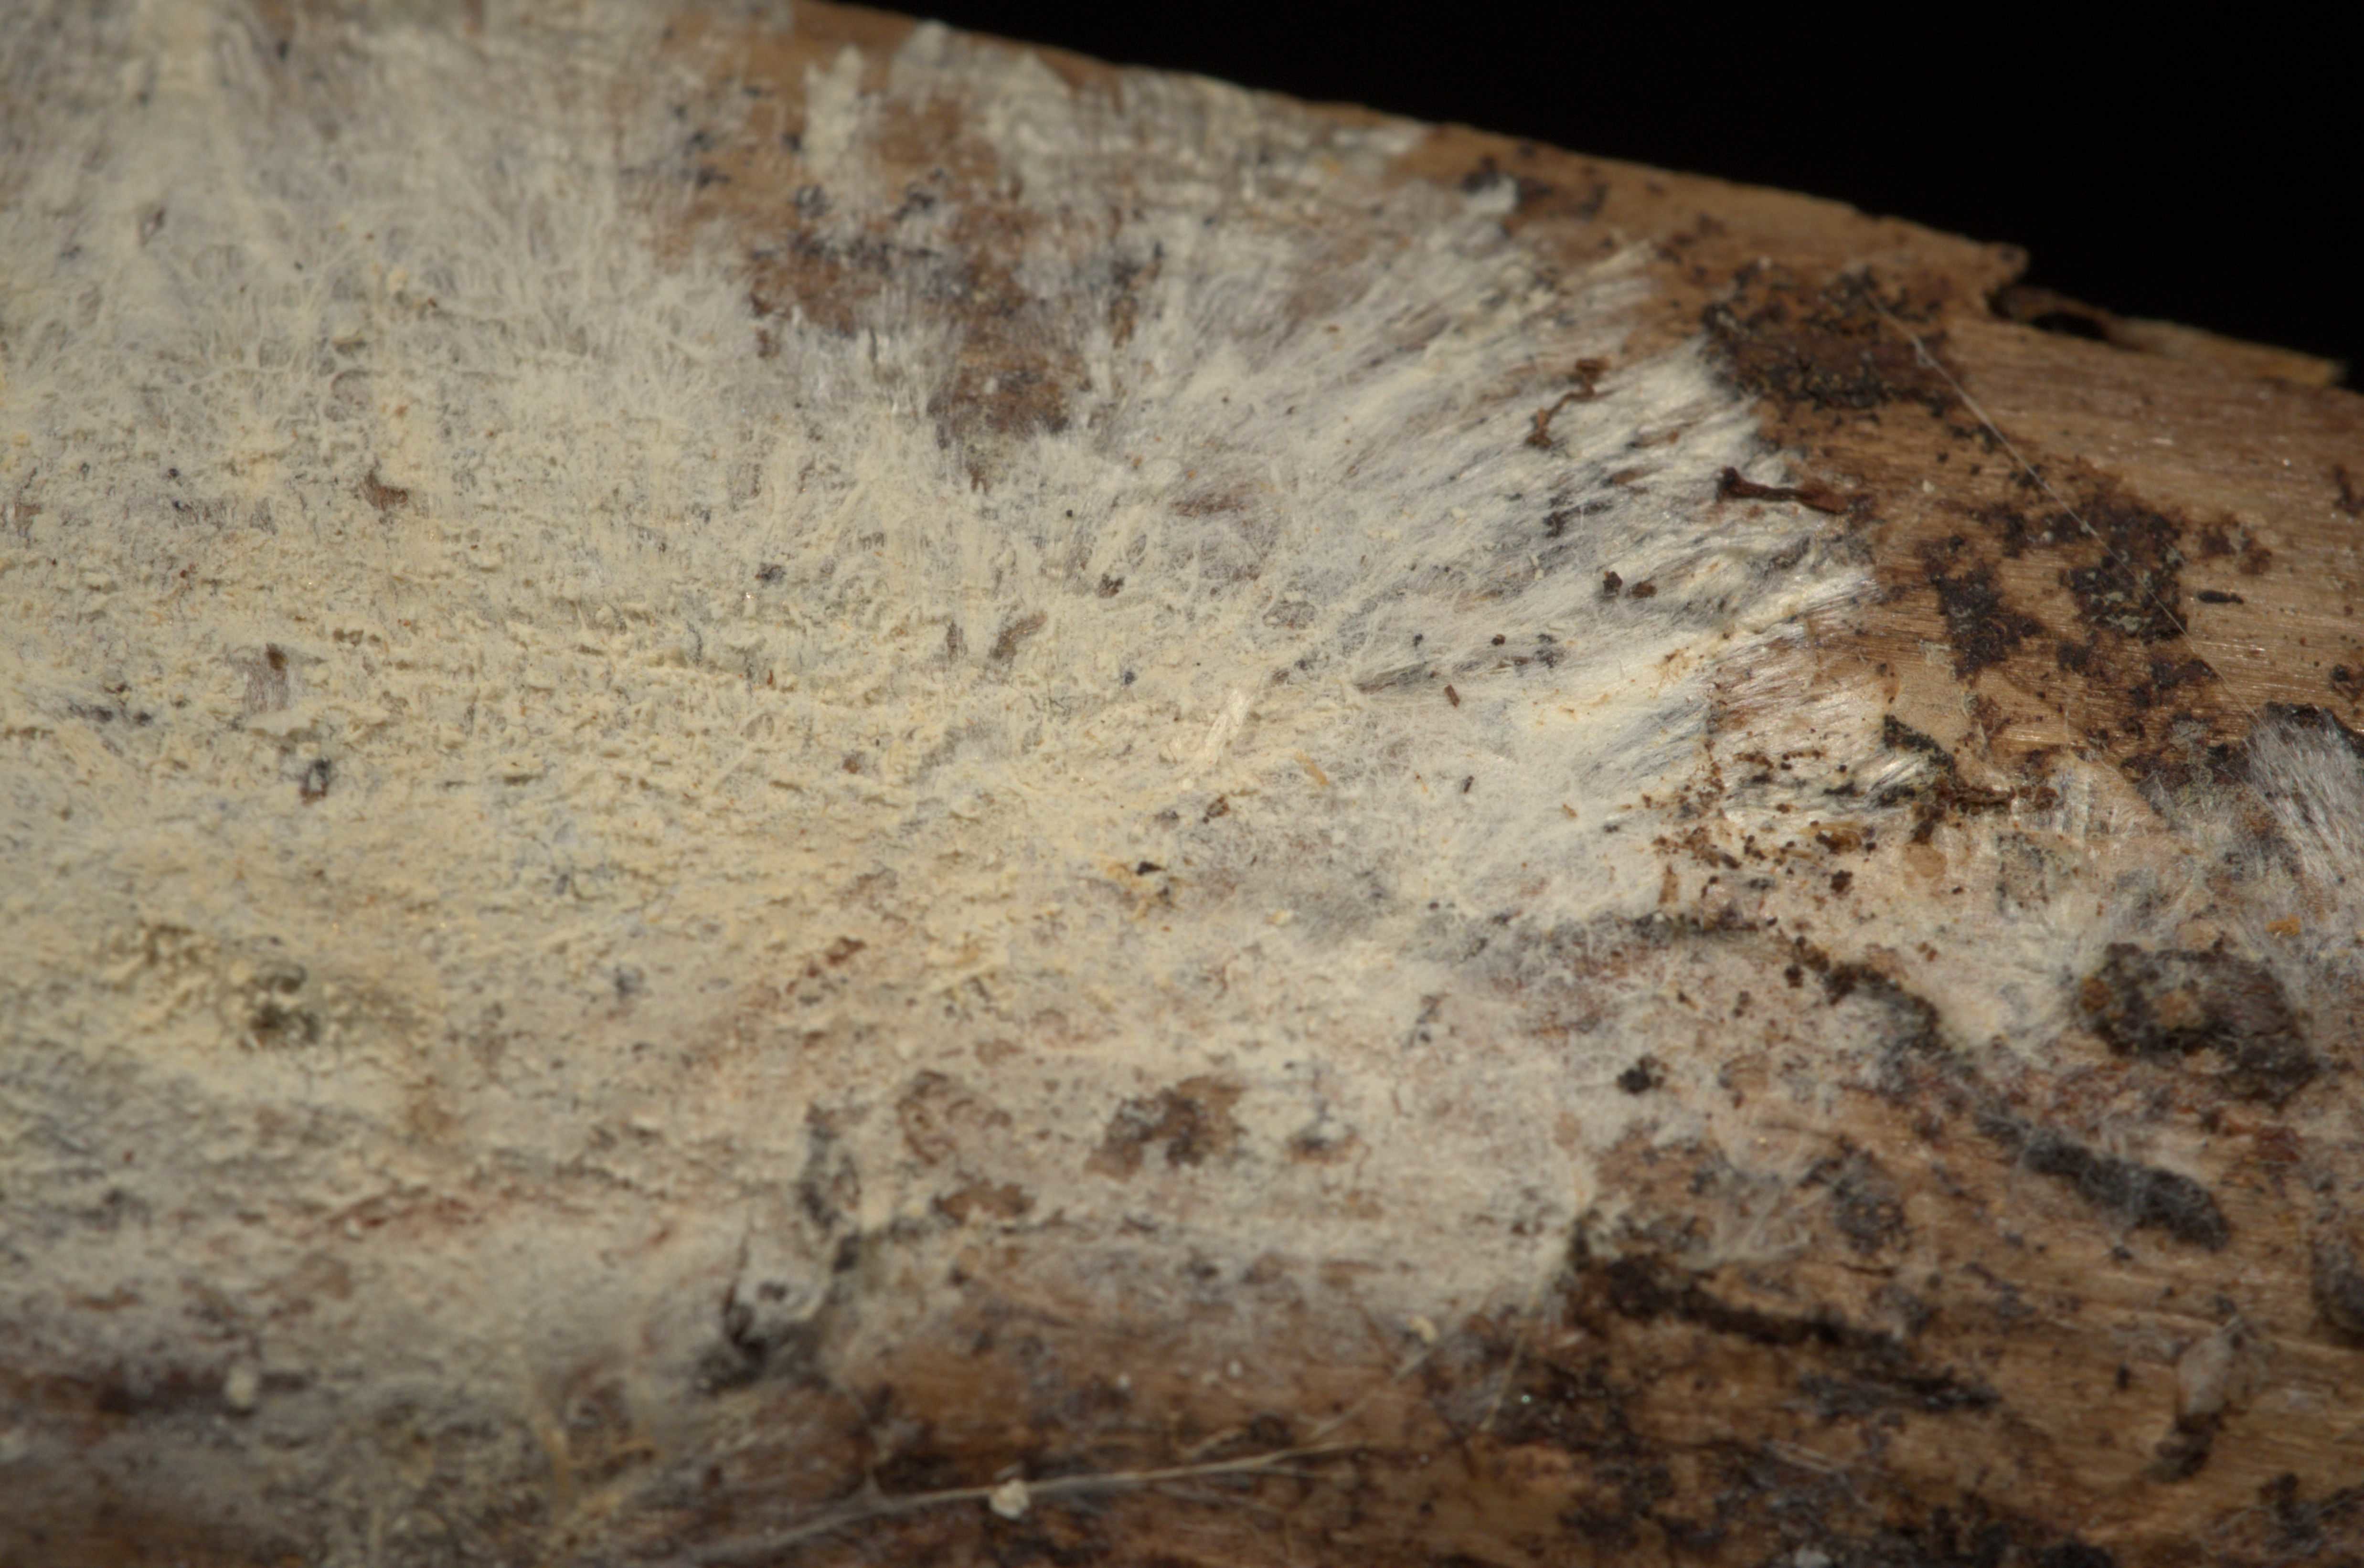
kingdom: Fungi
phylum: Basidiomycota
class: Agaricomycetes
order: Trechisporales
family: Sistotremataceae
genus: Trechispora
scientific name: Trechispora kavinioides
